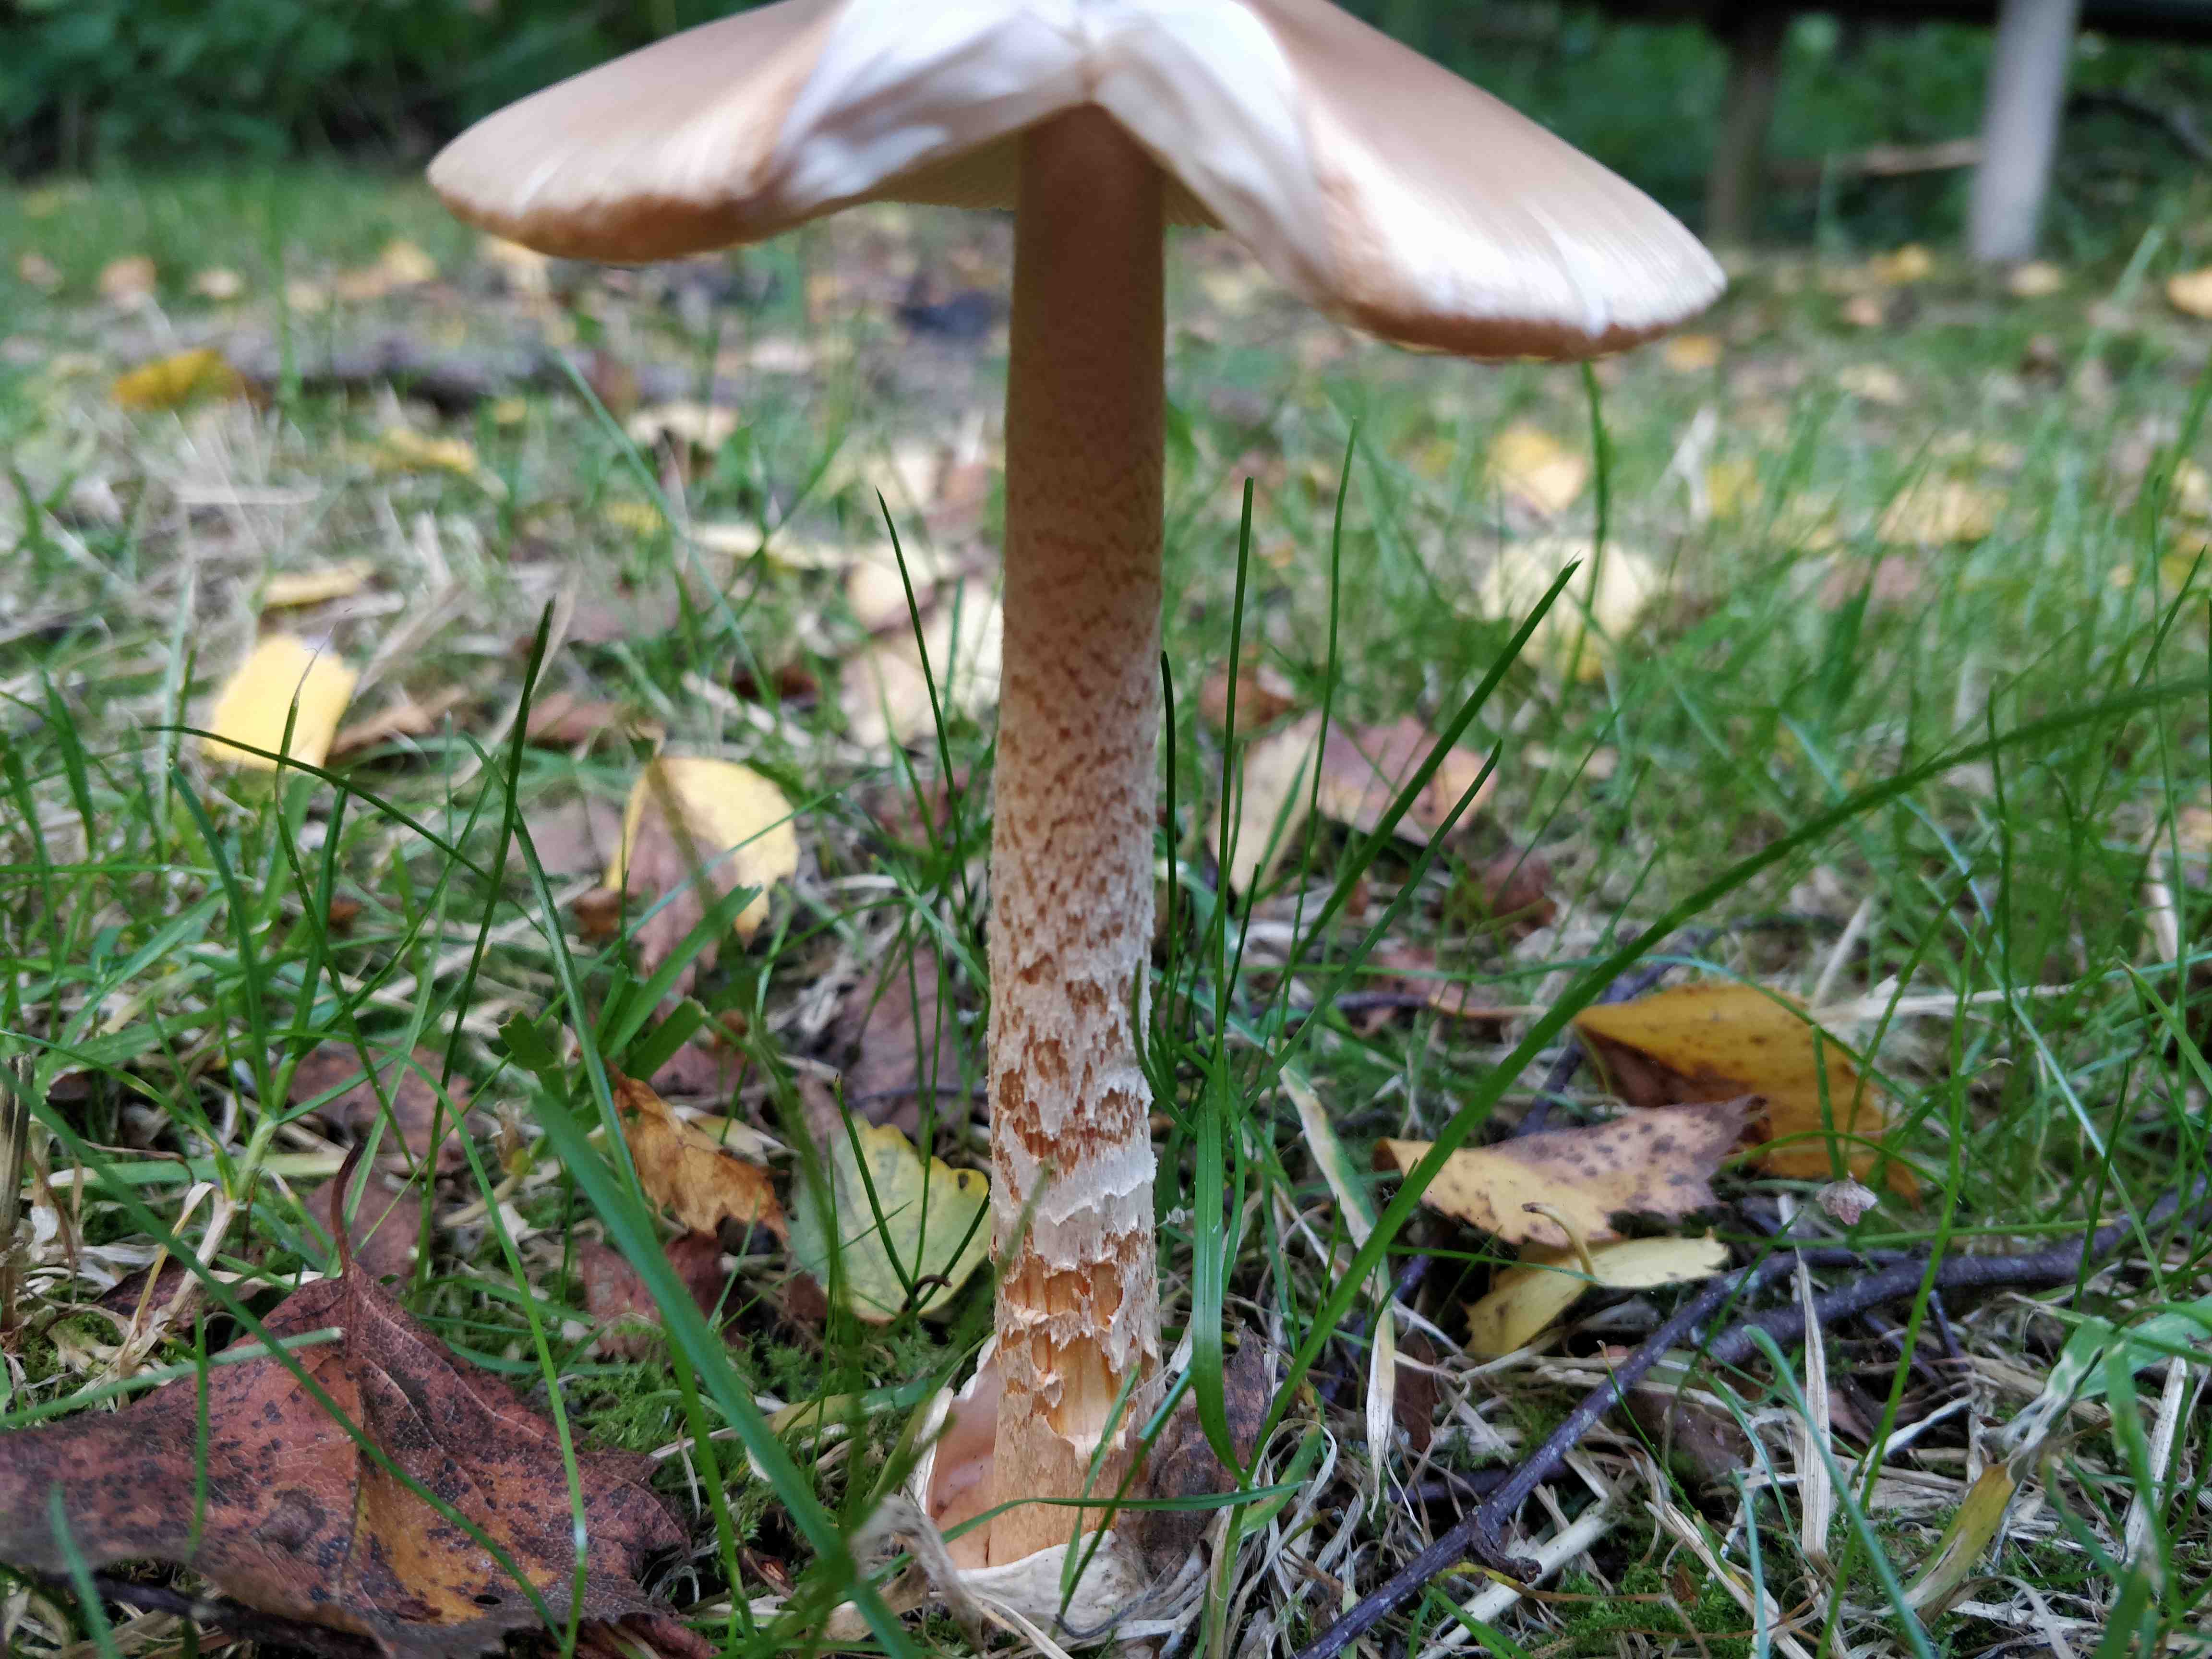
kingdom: Fungi
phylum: Basidiomycota
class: Agaricomycetes
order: Agaricales
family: Amanitaceae
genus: Amanita
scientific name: Amanita crocea
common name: gylden kam-fluesvamp
